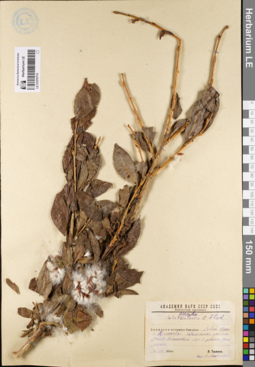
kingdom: Plantae
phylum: Tracheophyta
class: Magnoliopsida
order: Malpighiales
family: Salicaceae
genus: Salix
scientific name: Salix pseudopentandra
